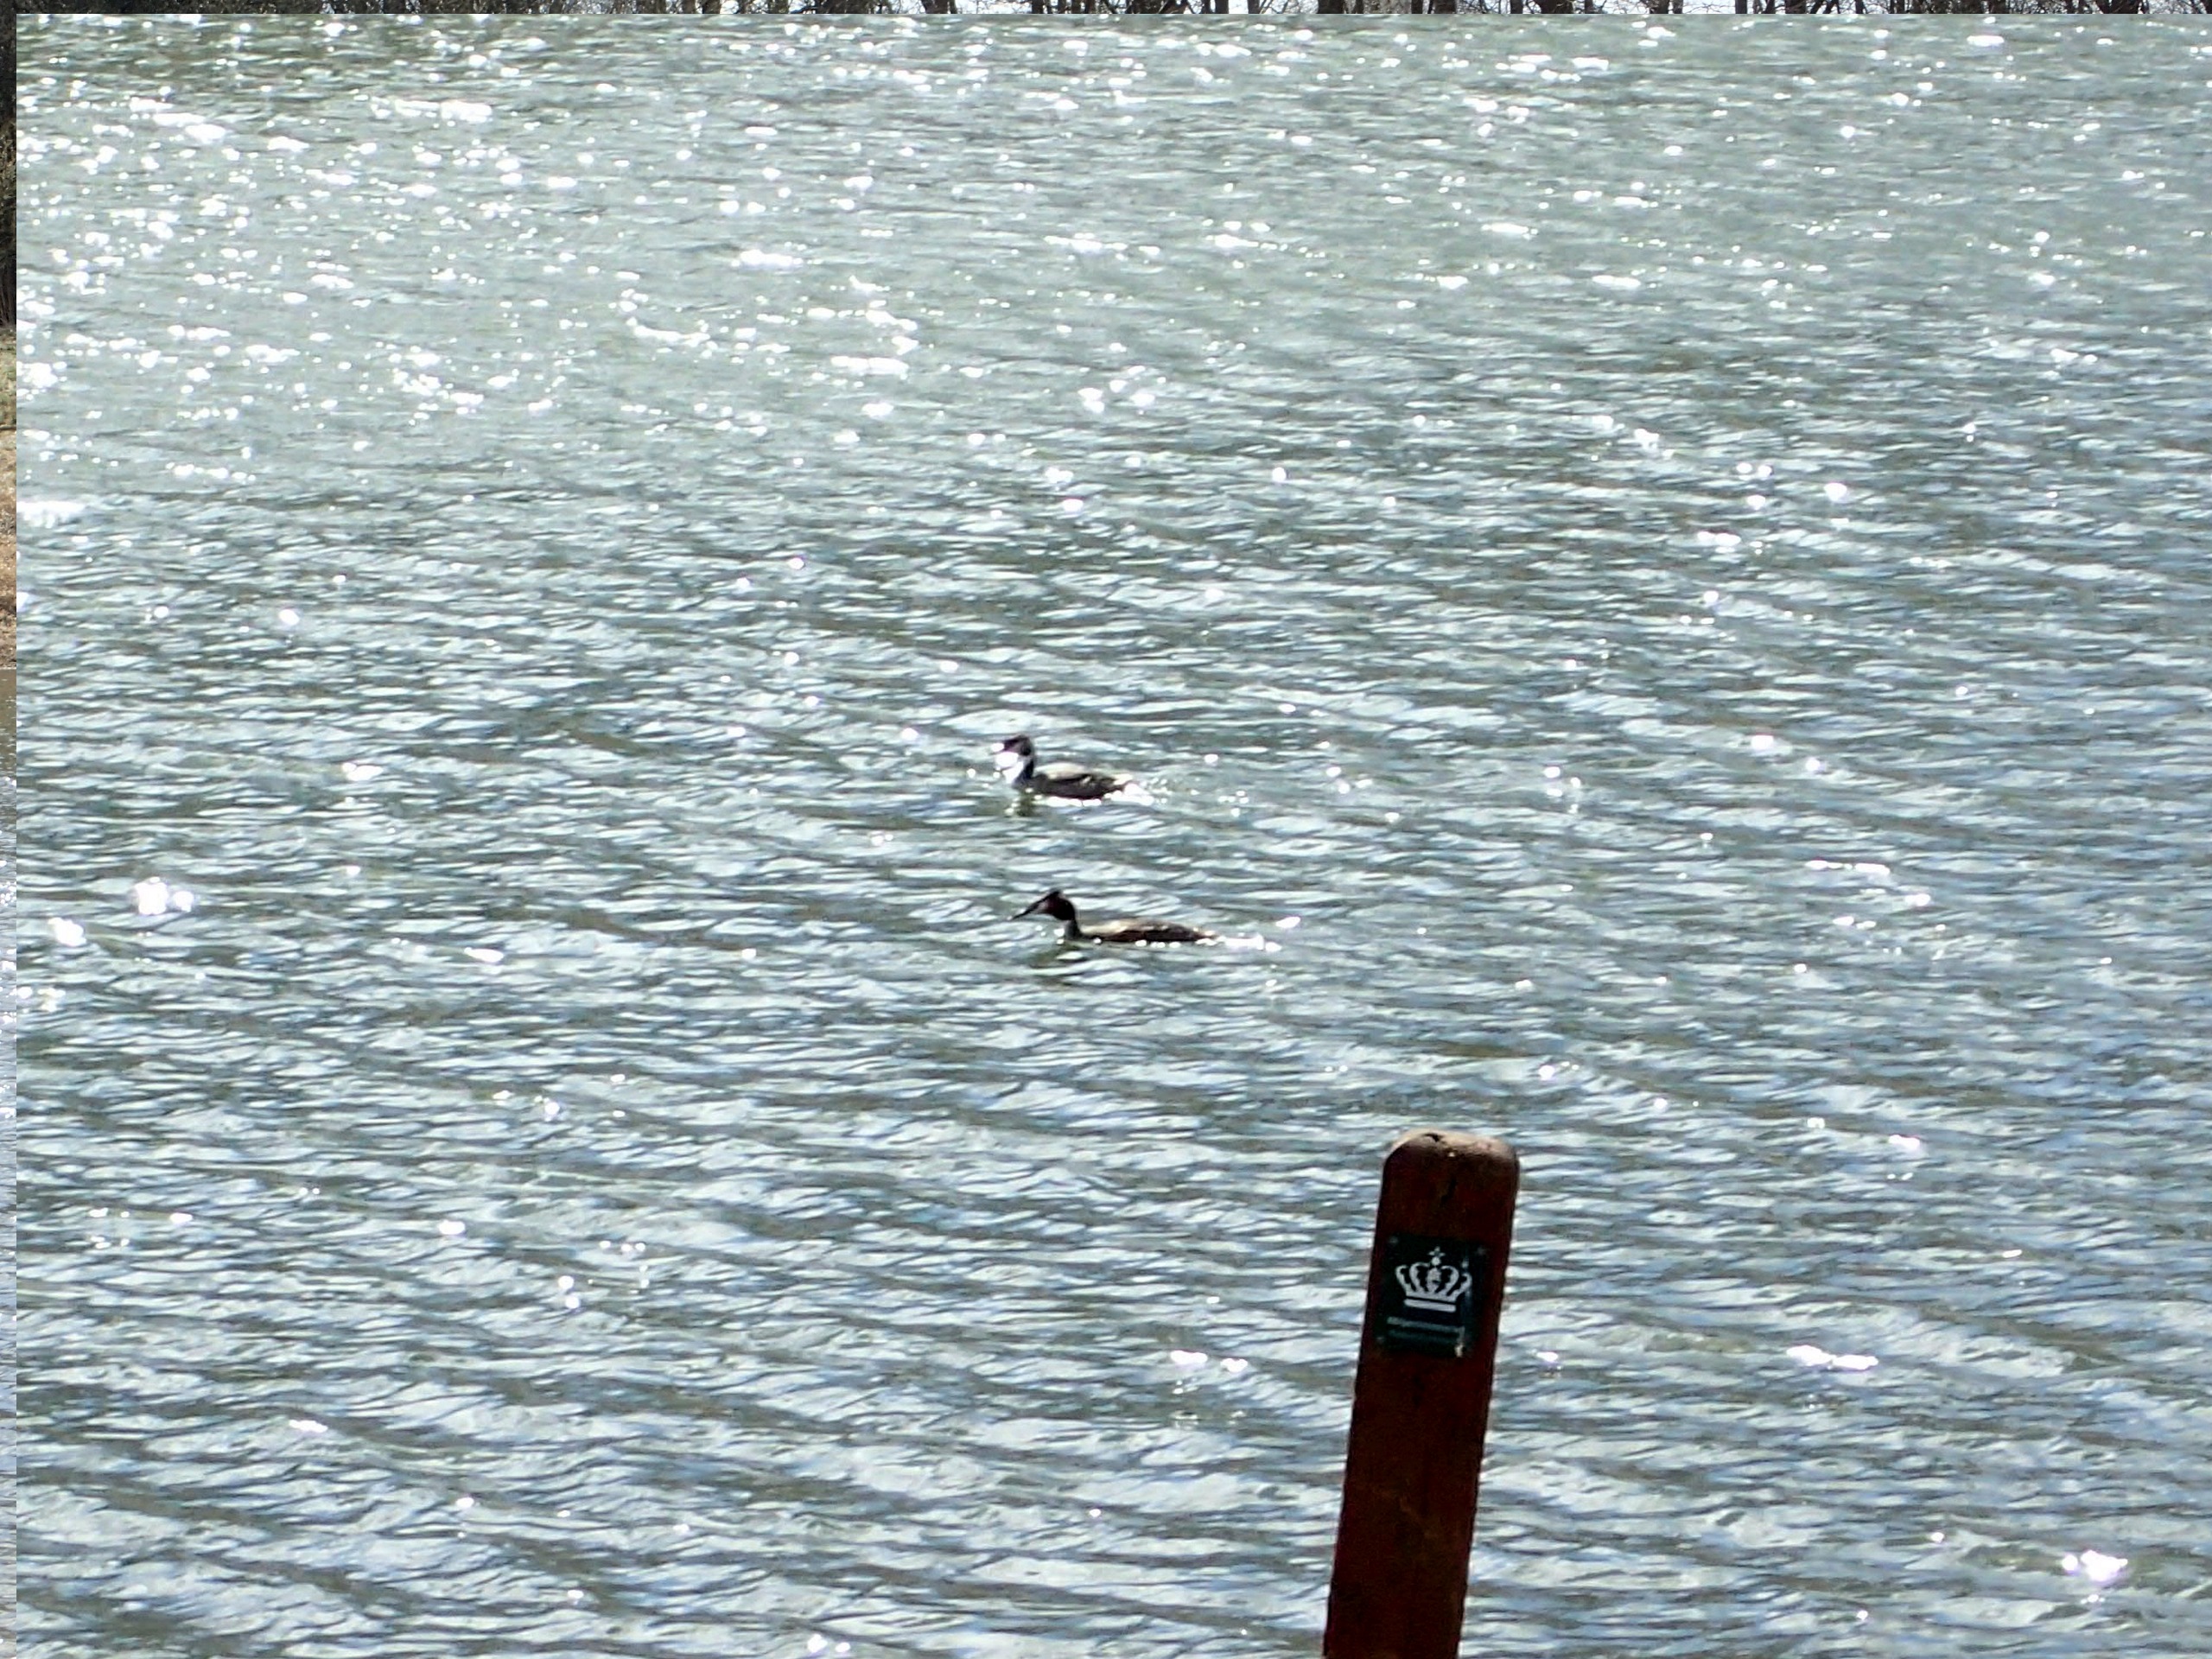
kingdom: Animalia
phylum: Chordata
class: Aves
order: Podicipediformes
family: Podicipedidae
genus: Podiceps
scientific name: Podiceps cristatus
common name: Toppet lappedykker
